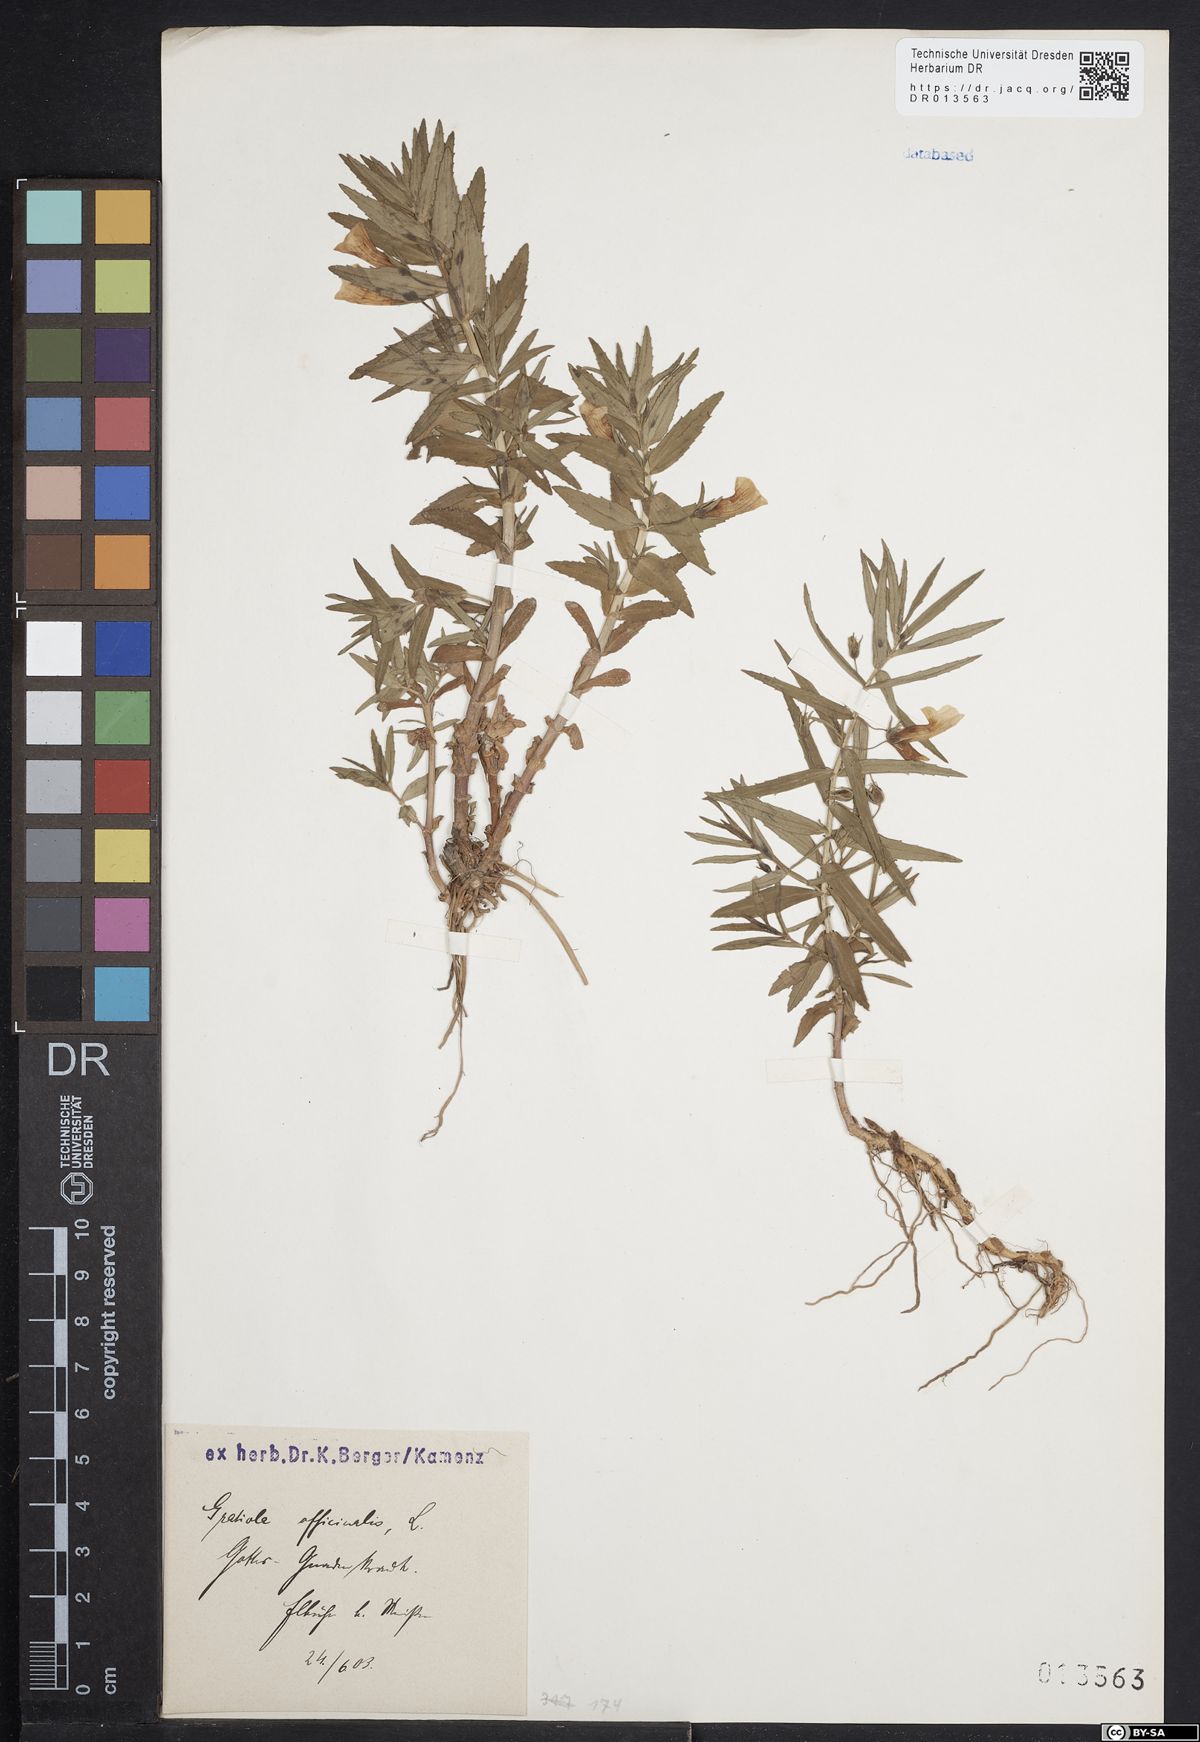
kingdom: Plantae
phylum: Tracheophyta
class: Magnoliopsida
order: Lamiales
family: Plantaginaceae
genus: Gratiola
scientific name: Gratiola officinalis
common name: Gratiola
